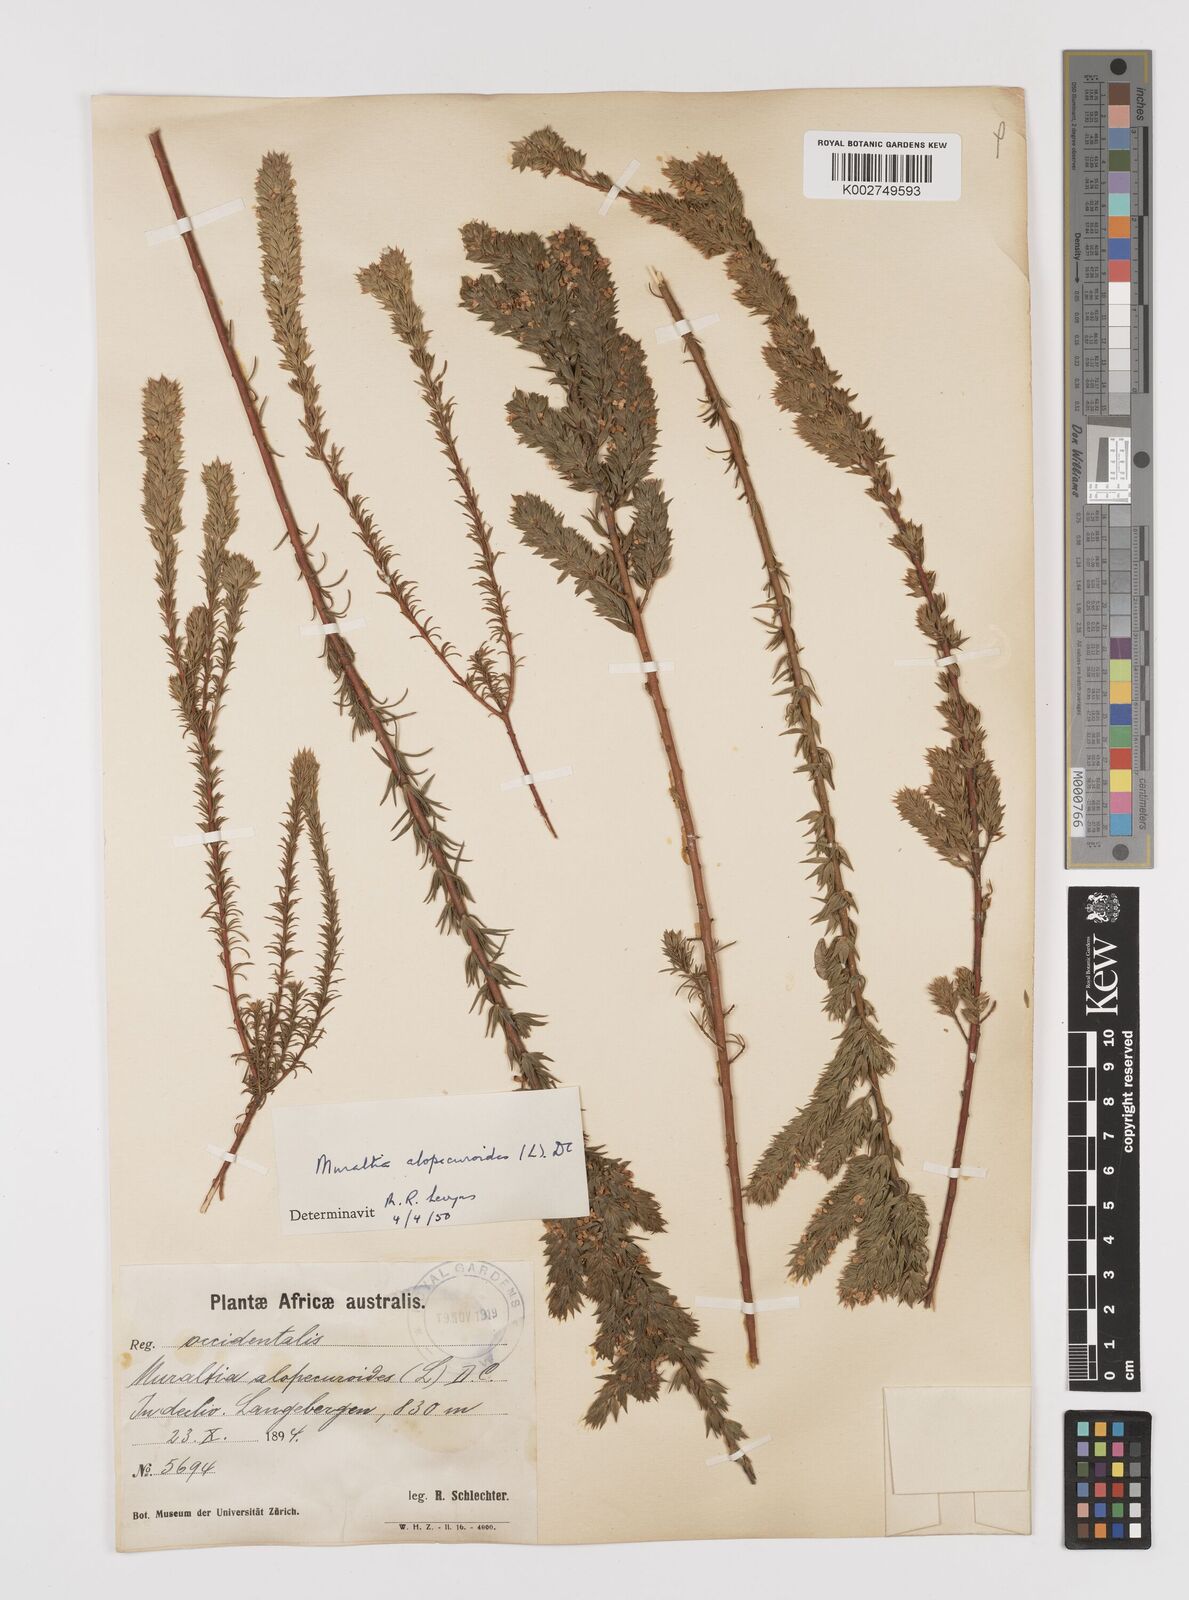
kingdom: Plantae
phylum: Tracheophyta
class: Magnoliopsida
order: Fabales
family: Polygalaceae
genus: Muraltia
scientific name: Muraltia alopecuroides
